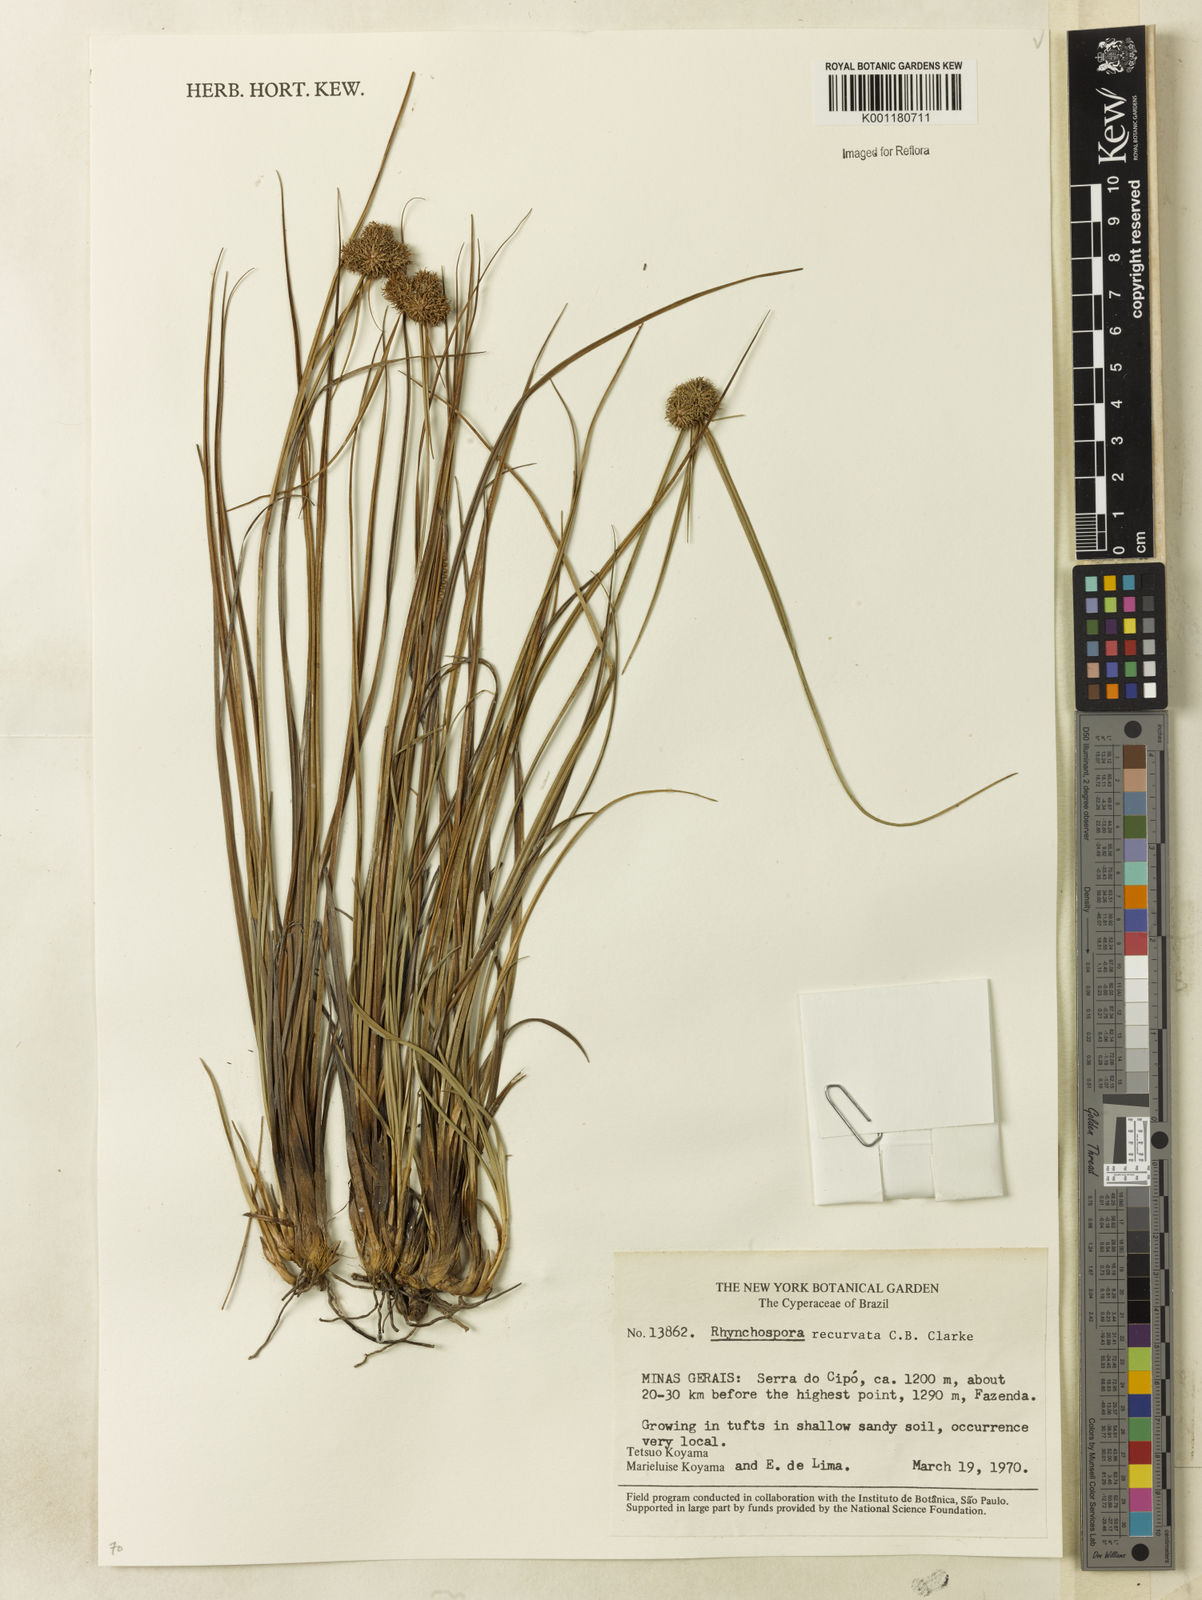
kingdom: Plantae
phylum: Tracheophyta
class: Liliopsida
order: Poales
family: Cyperaceae
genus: Rhynchospora
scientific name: Rhynchospora recurvata
